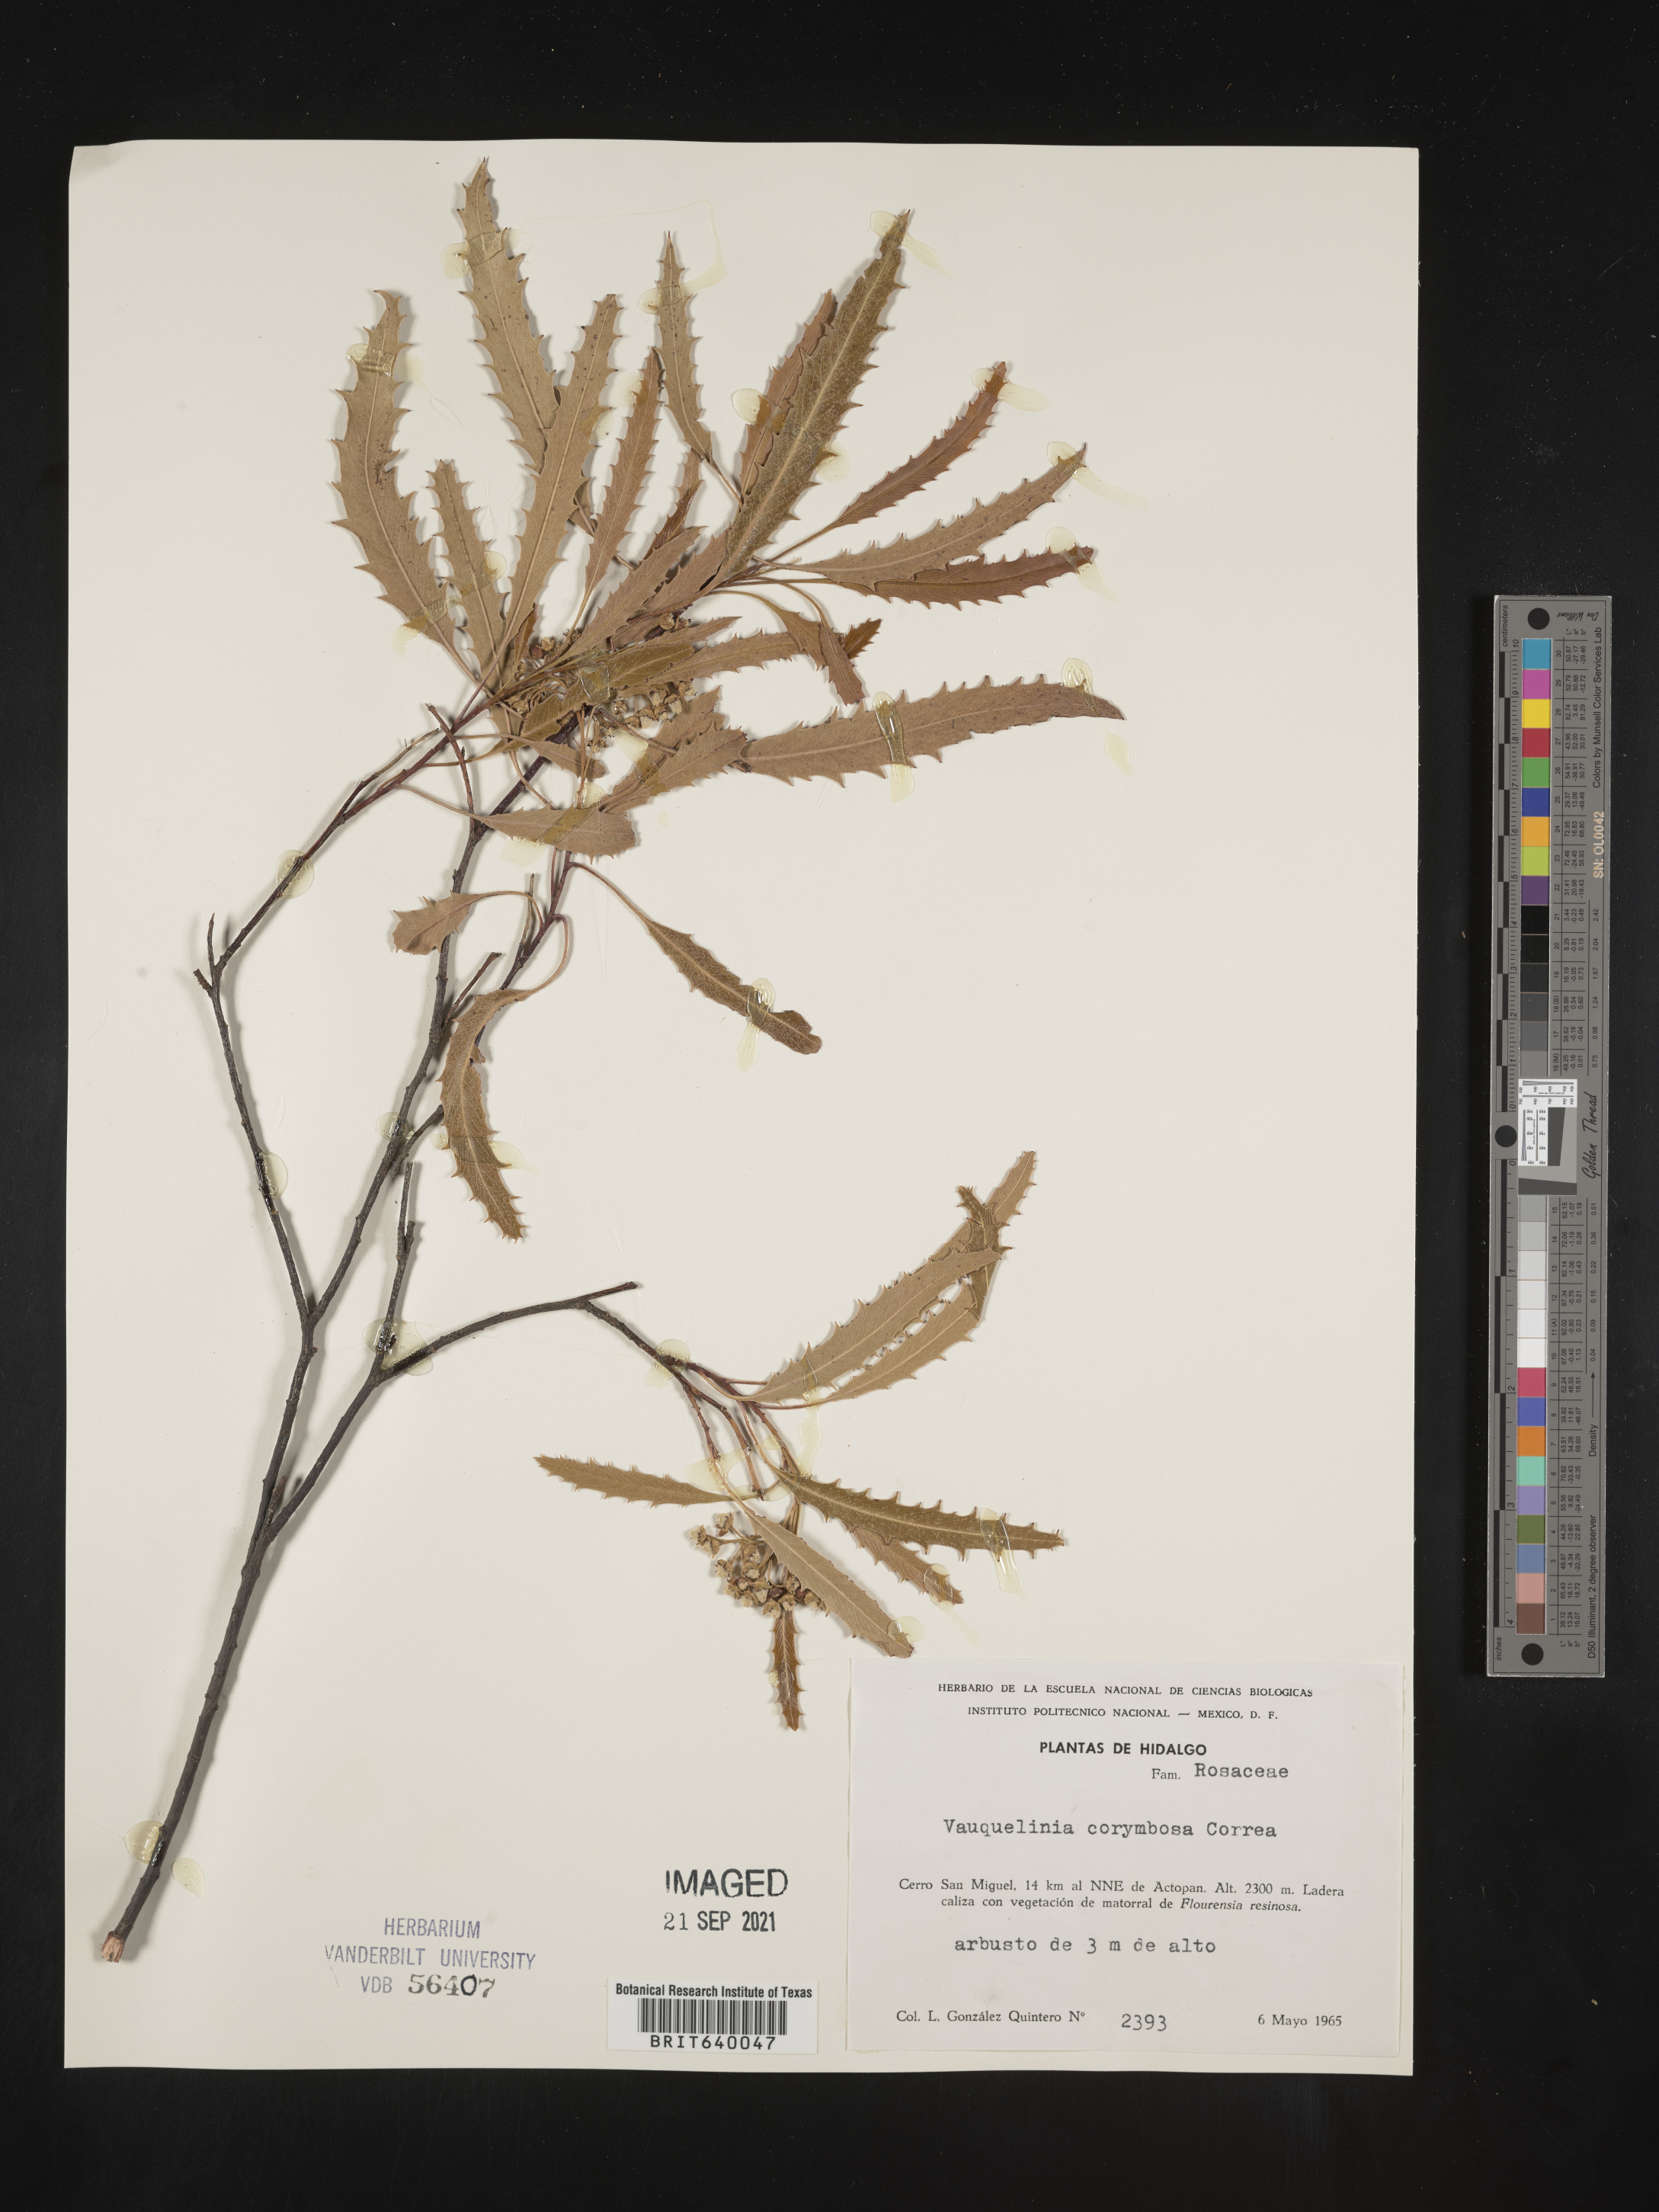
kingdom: Plantae
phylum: Tracheophyta
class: Magnoliopsida
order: Rosales
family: Rosaceae
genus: Vauquelinia
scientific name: Vauquelinia
